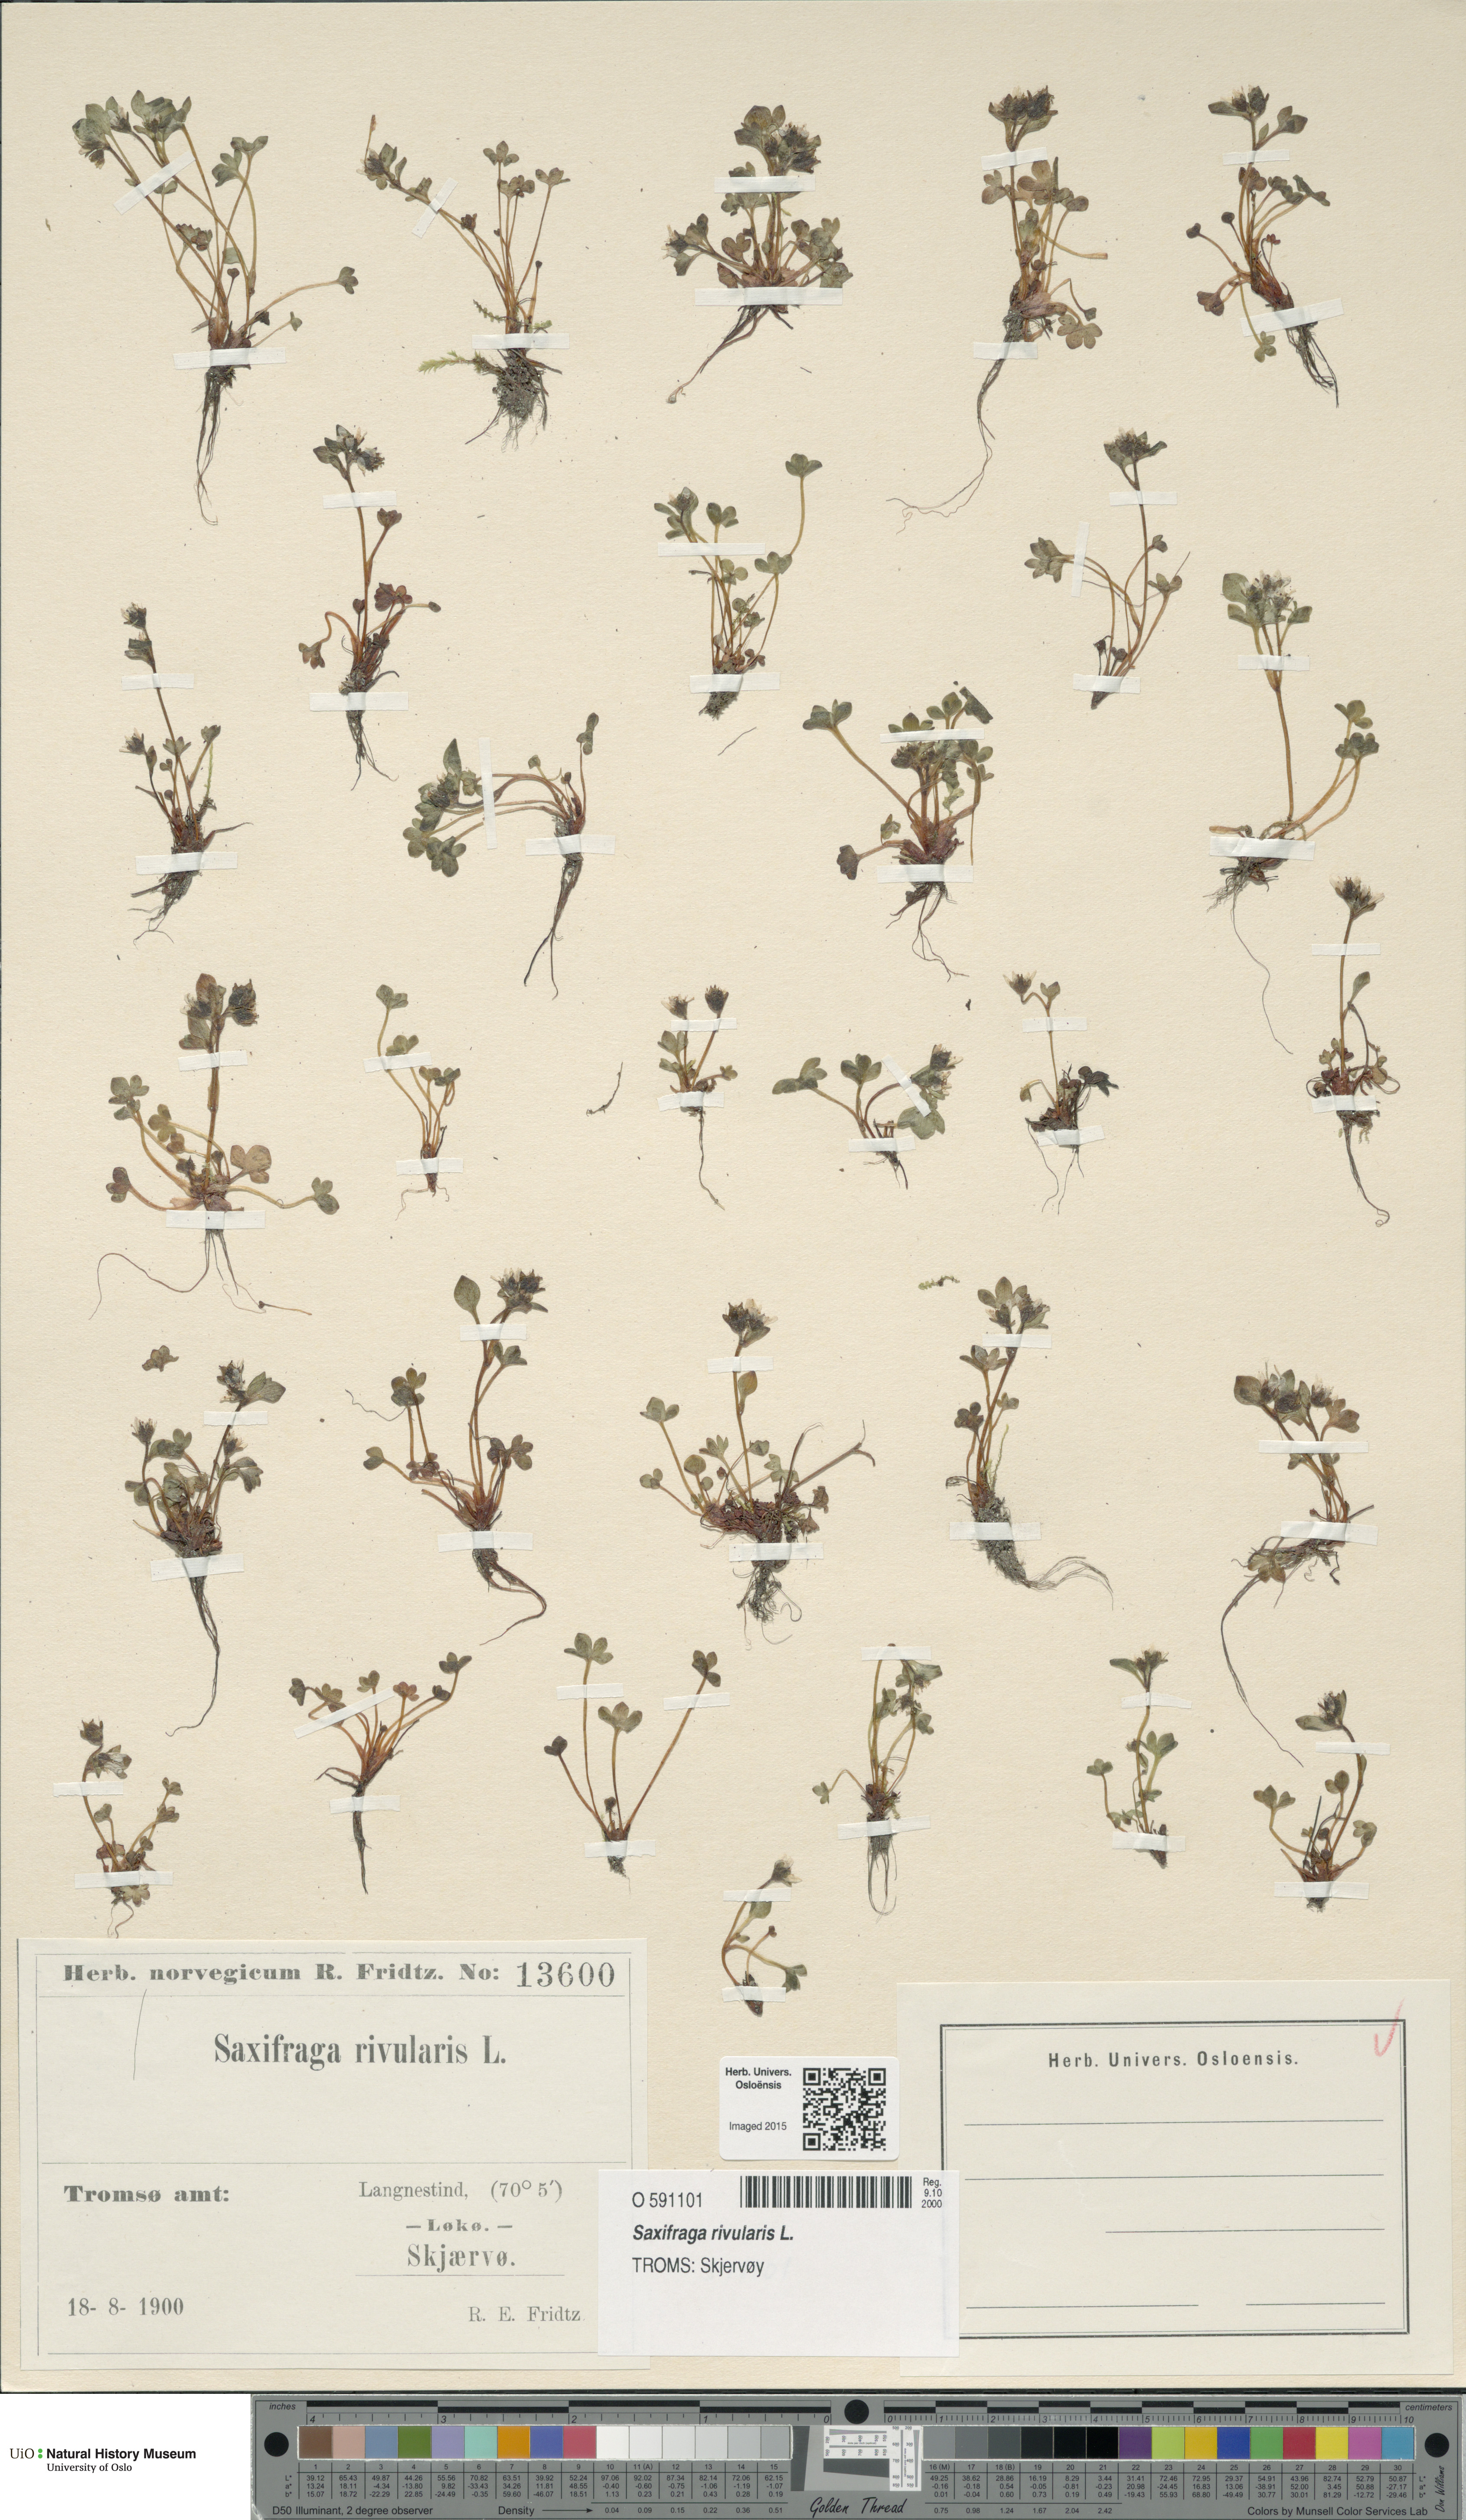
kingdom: Plantae
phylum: Tracheophyta
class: Magnoliopsida
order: Saxifragales
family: Saxifragaceae
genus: Saxifraga
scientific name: Saxifraga rivularis
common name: Highland saxifrage
